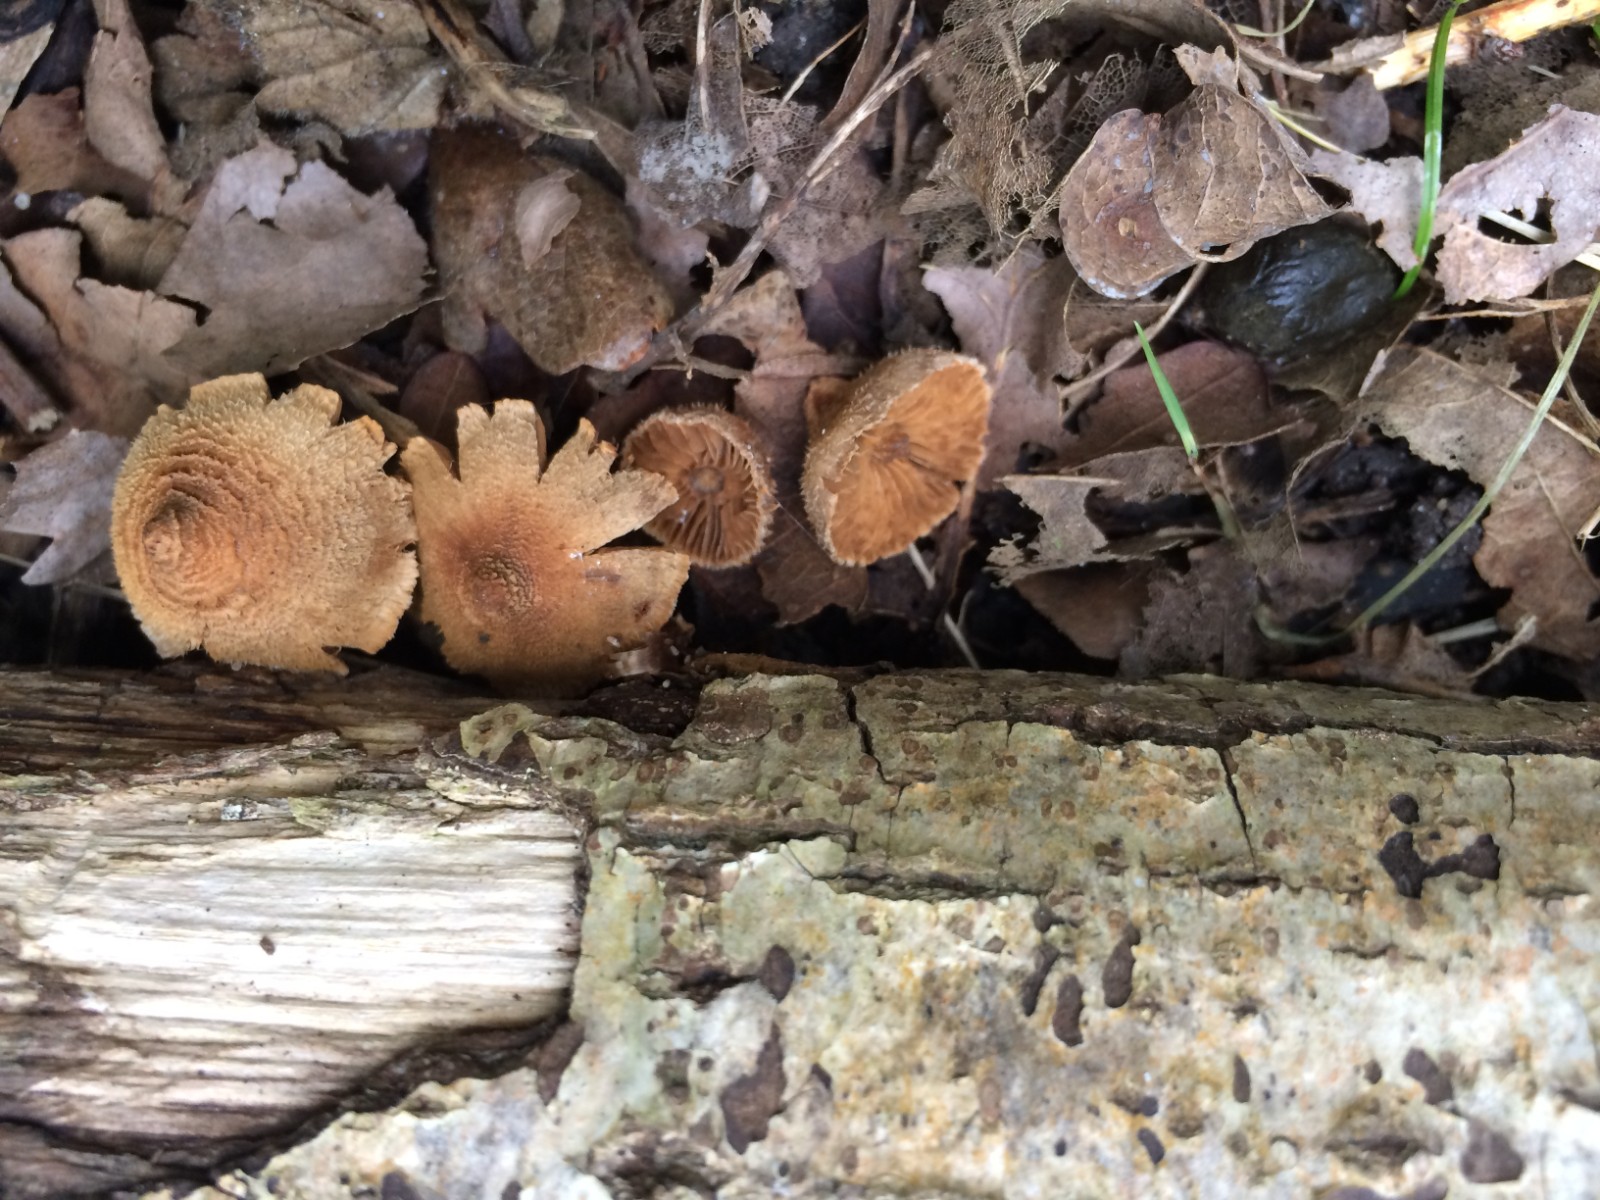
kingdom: Fungi
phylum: Basidiomycota
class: Agaricomycetes
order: Agaricales
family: Cortinariaceae
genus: Cortinarius
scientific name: Cortinarius quercoconicus
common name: agernskål-slørhat
